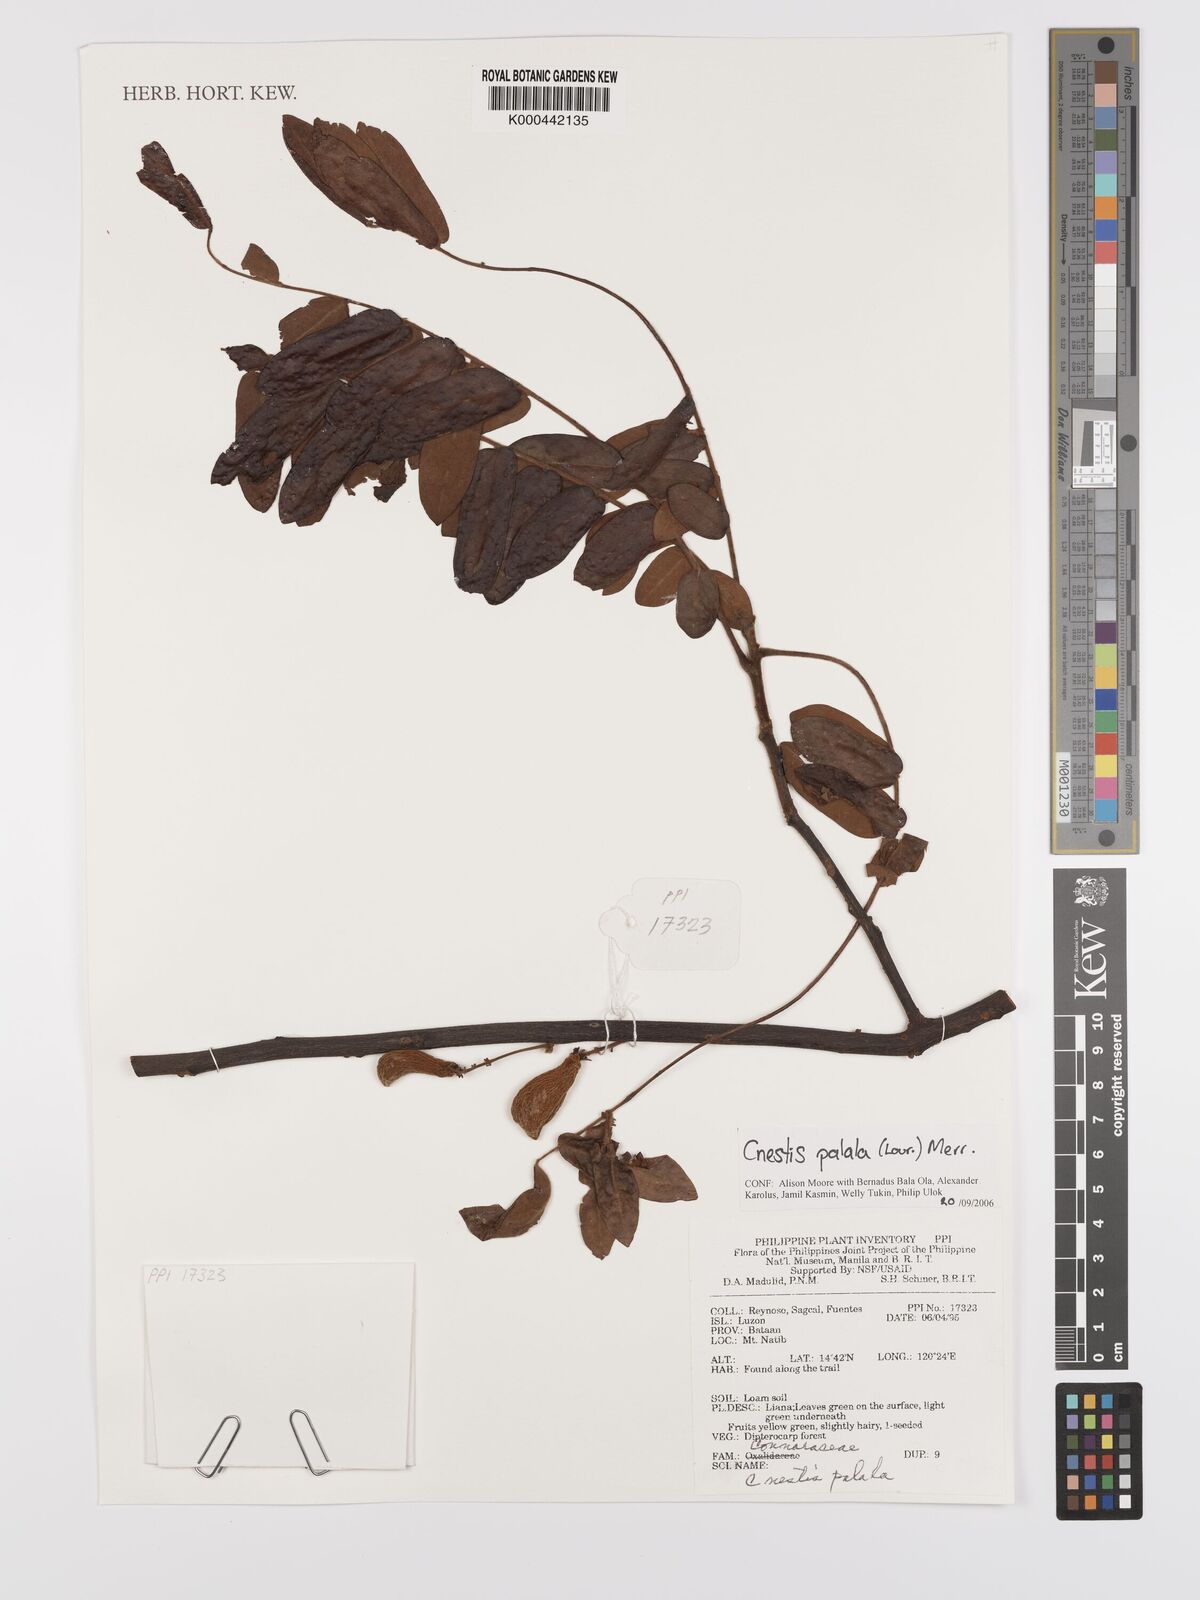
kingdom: Plantae
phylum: Tracheophyta
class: Magnoliopsida
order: Oxalidales
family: Connaraceae
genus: Cnestis
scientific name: Cnestis palala
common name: Stinging-hair cnestis
